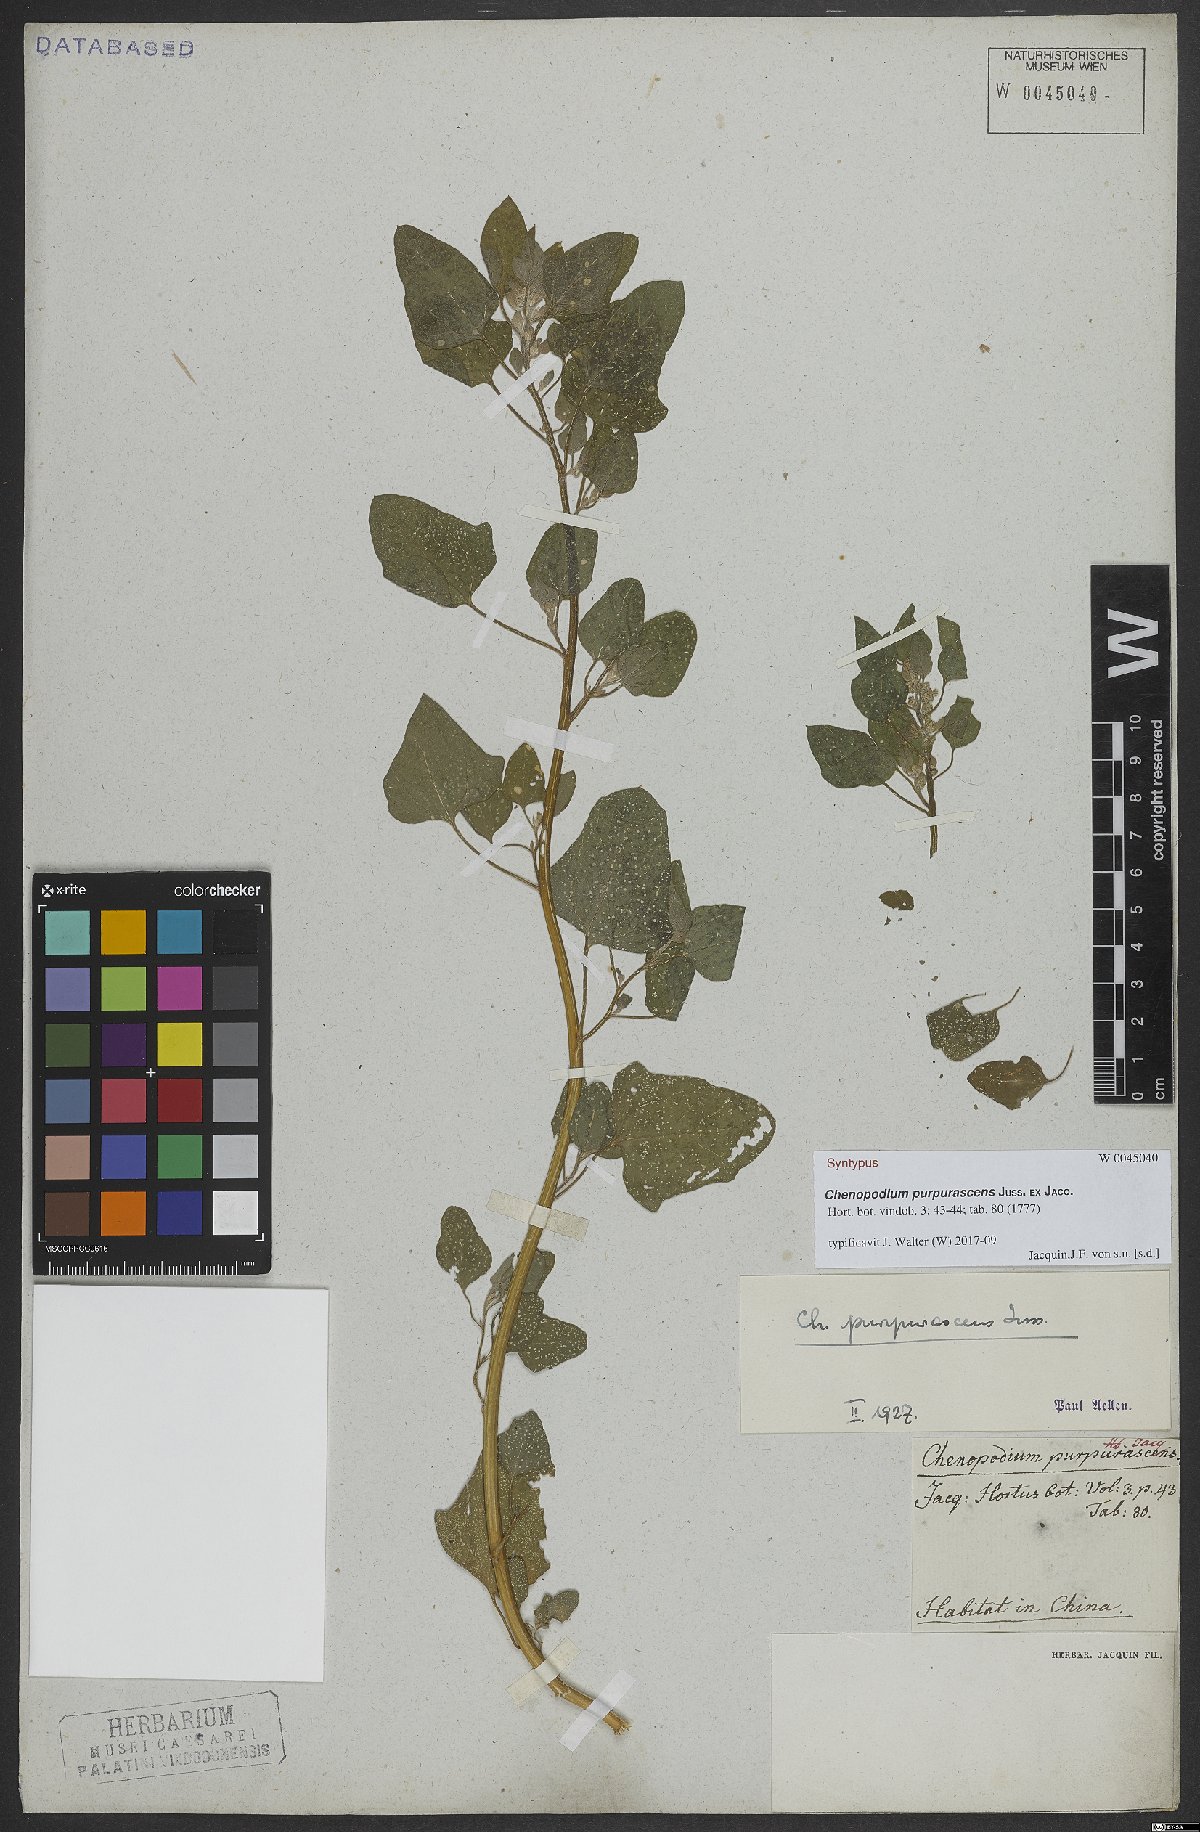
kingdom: Plantae
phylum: Tracheophyta
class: Magnoliopsida
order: Caryophyllales
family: Amaranthaceae
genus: Chenopodium
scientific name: Chenopodium quinoa
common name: Quinoa
